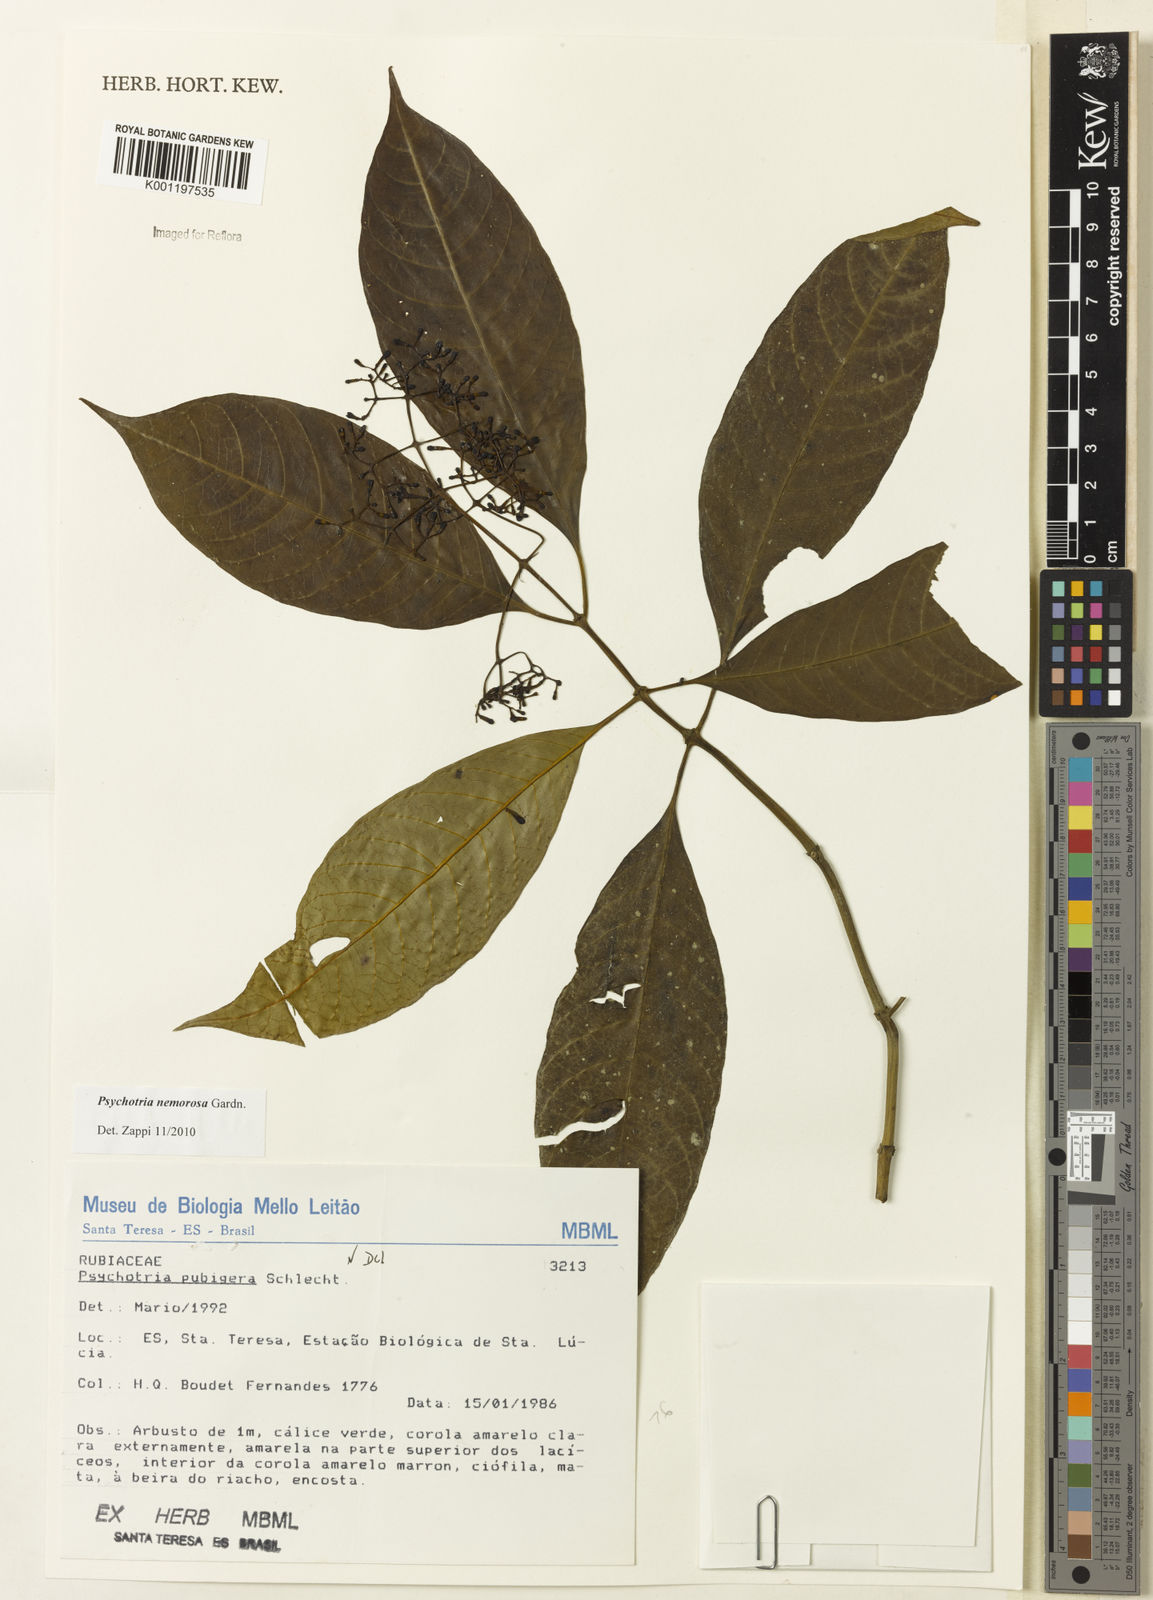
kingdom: Plantae
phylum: Tracheophyta
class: Magnoliopsida
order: Gentianales
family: Rubiaceae
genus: Psychotria
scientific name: Psychotria nemorosa
